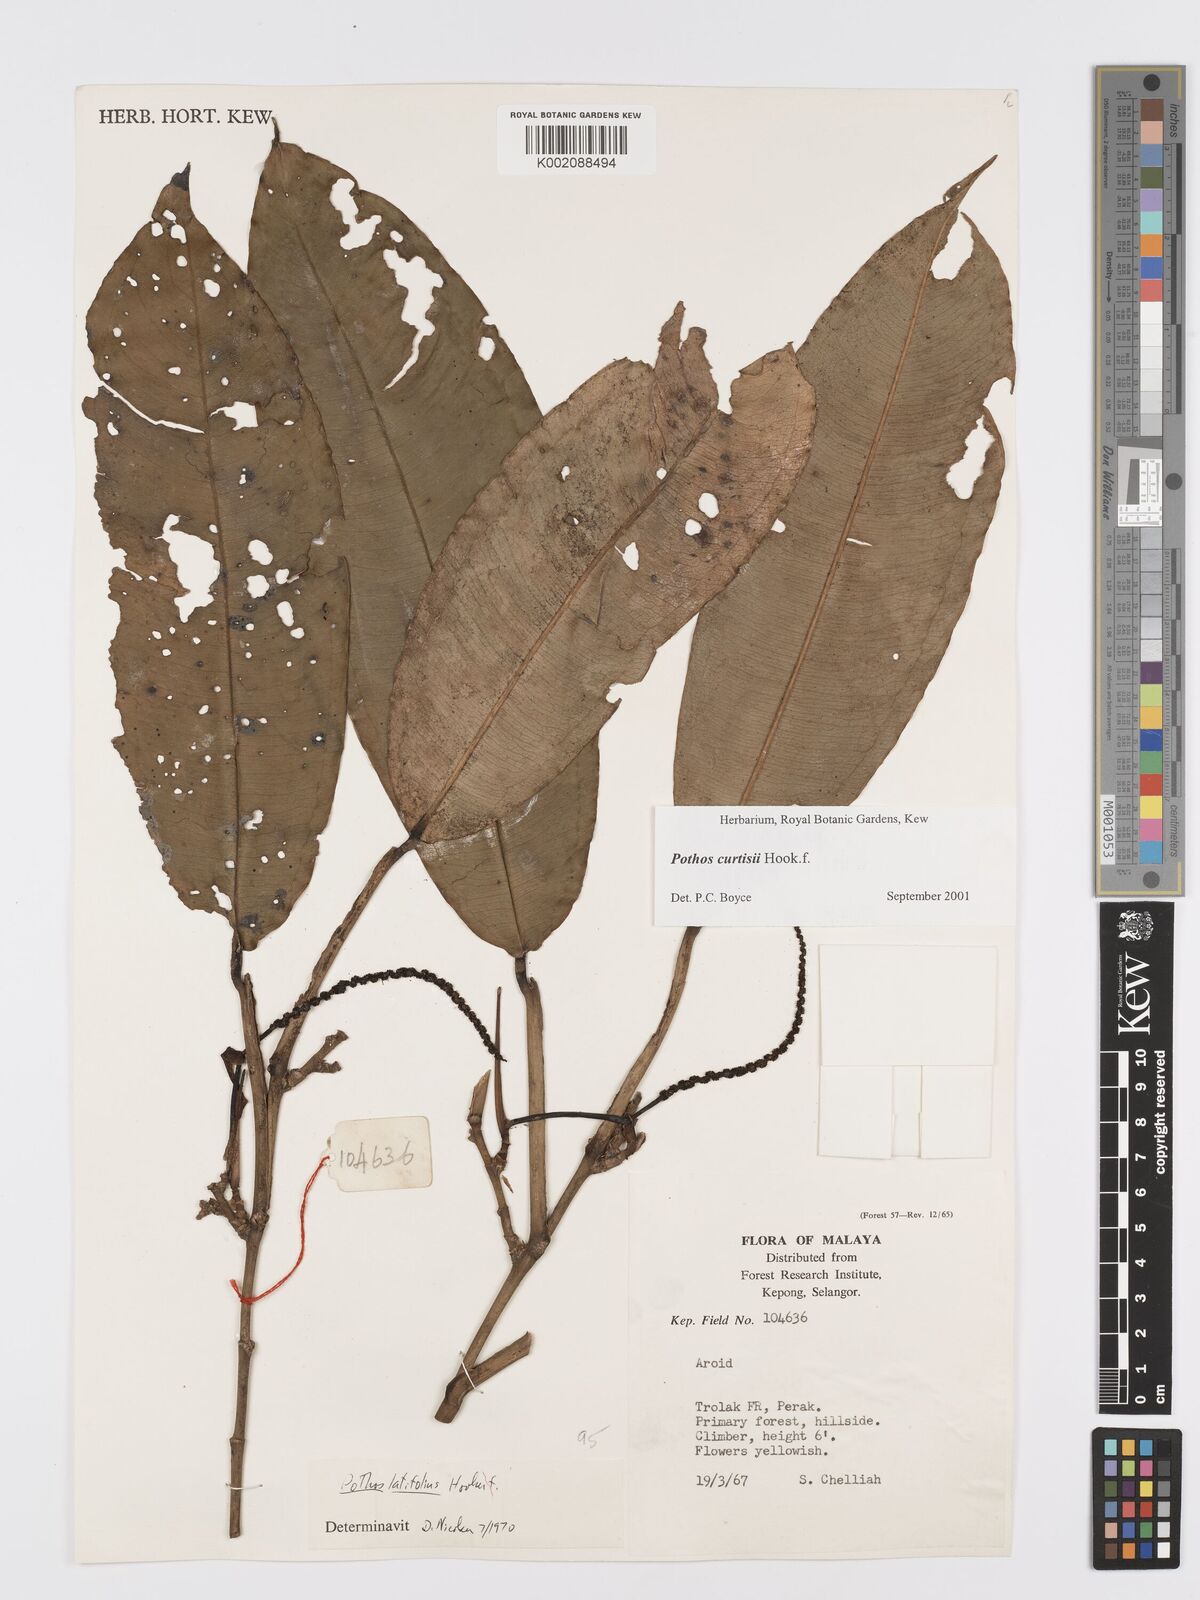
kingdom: Plantae
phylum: Tracheophyta
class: Liliopsida
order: Alismatales
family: Araceae
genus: Pothos
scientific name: Pothos curtisii
